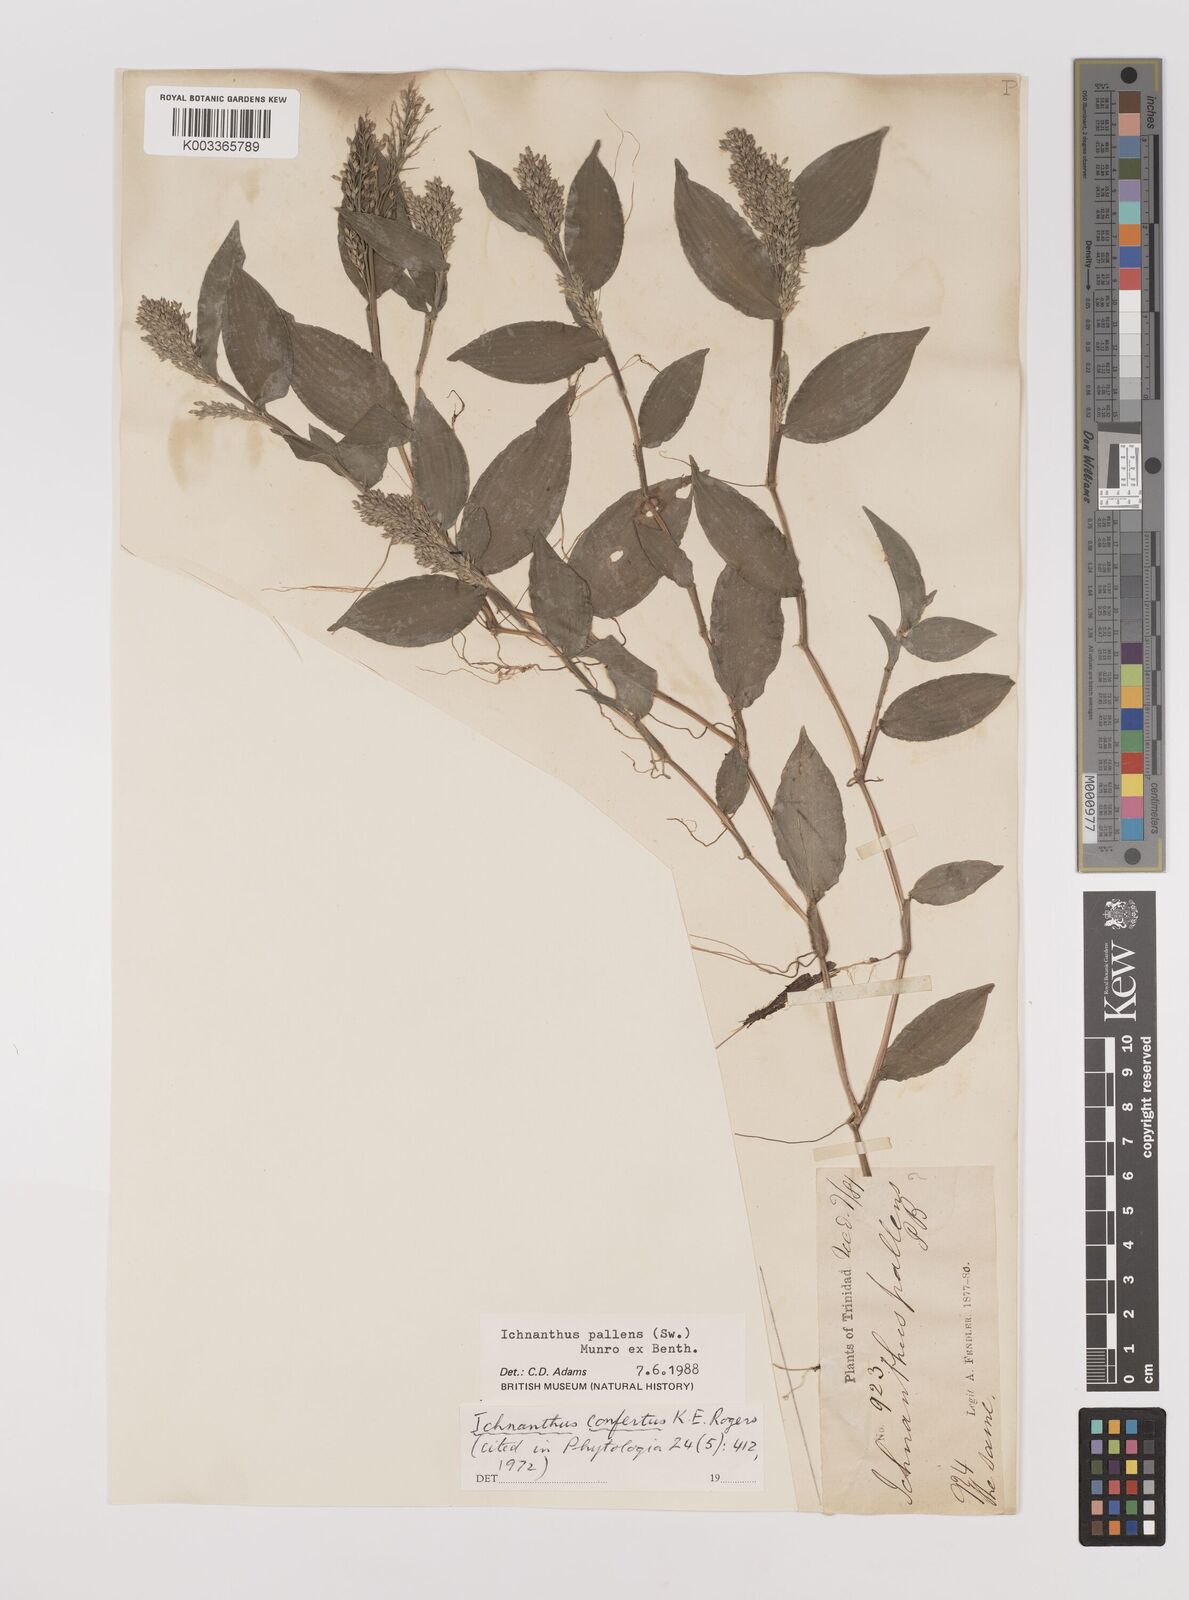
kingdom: Plantae
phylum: Tracheophyta
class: Liliopsida
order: Poales
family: Poaceae
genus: Ichnanthus
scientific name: Ichnanthus pallens
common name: Water grass
